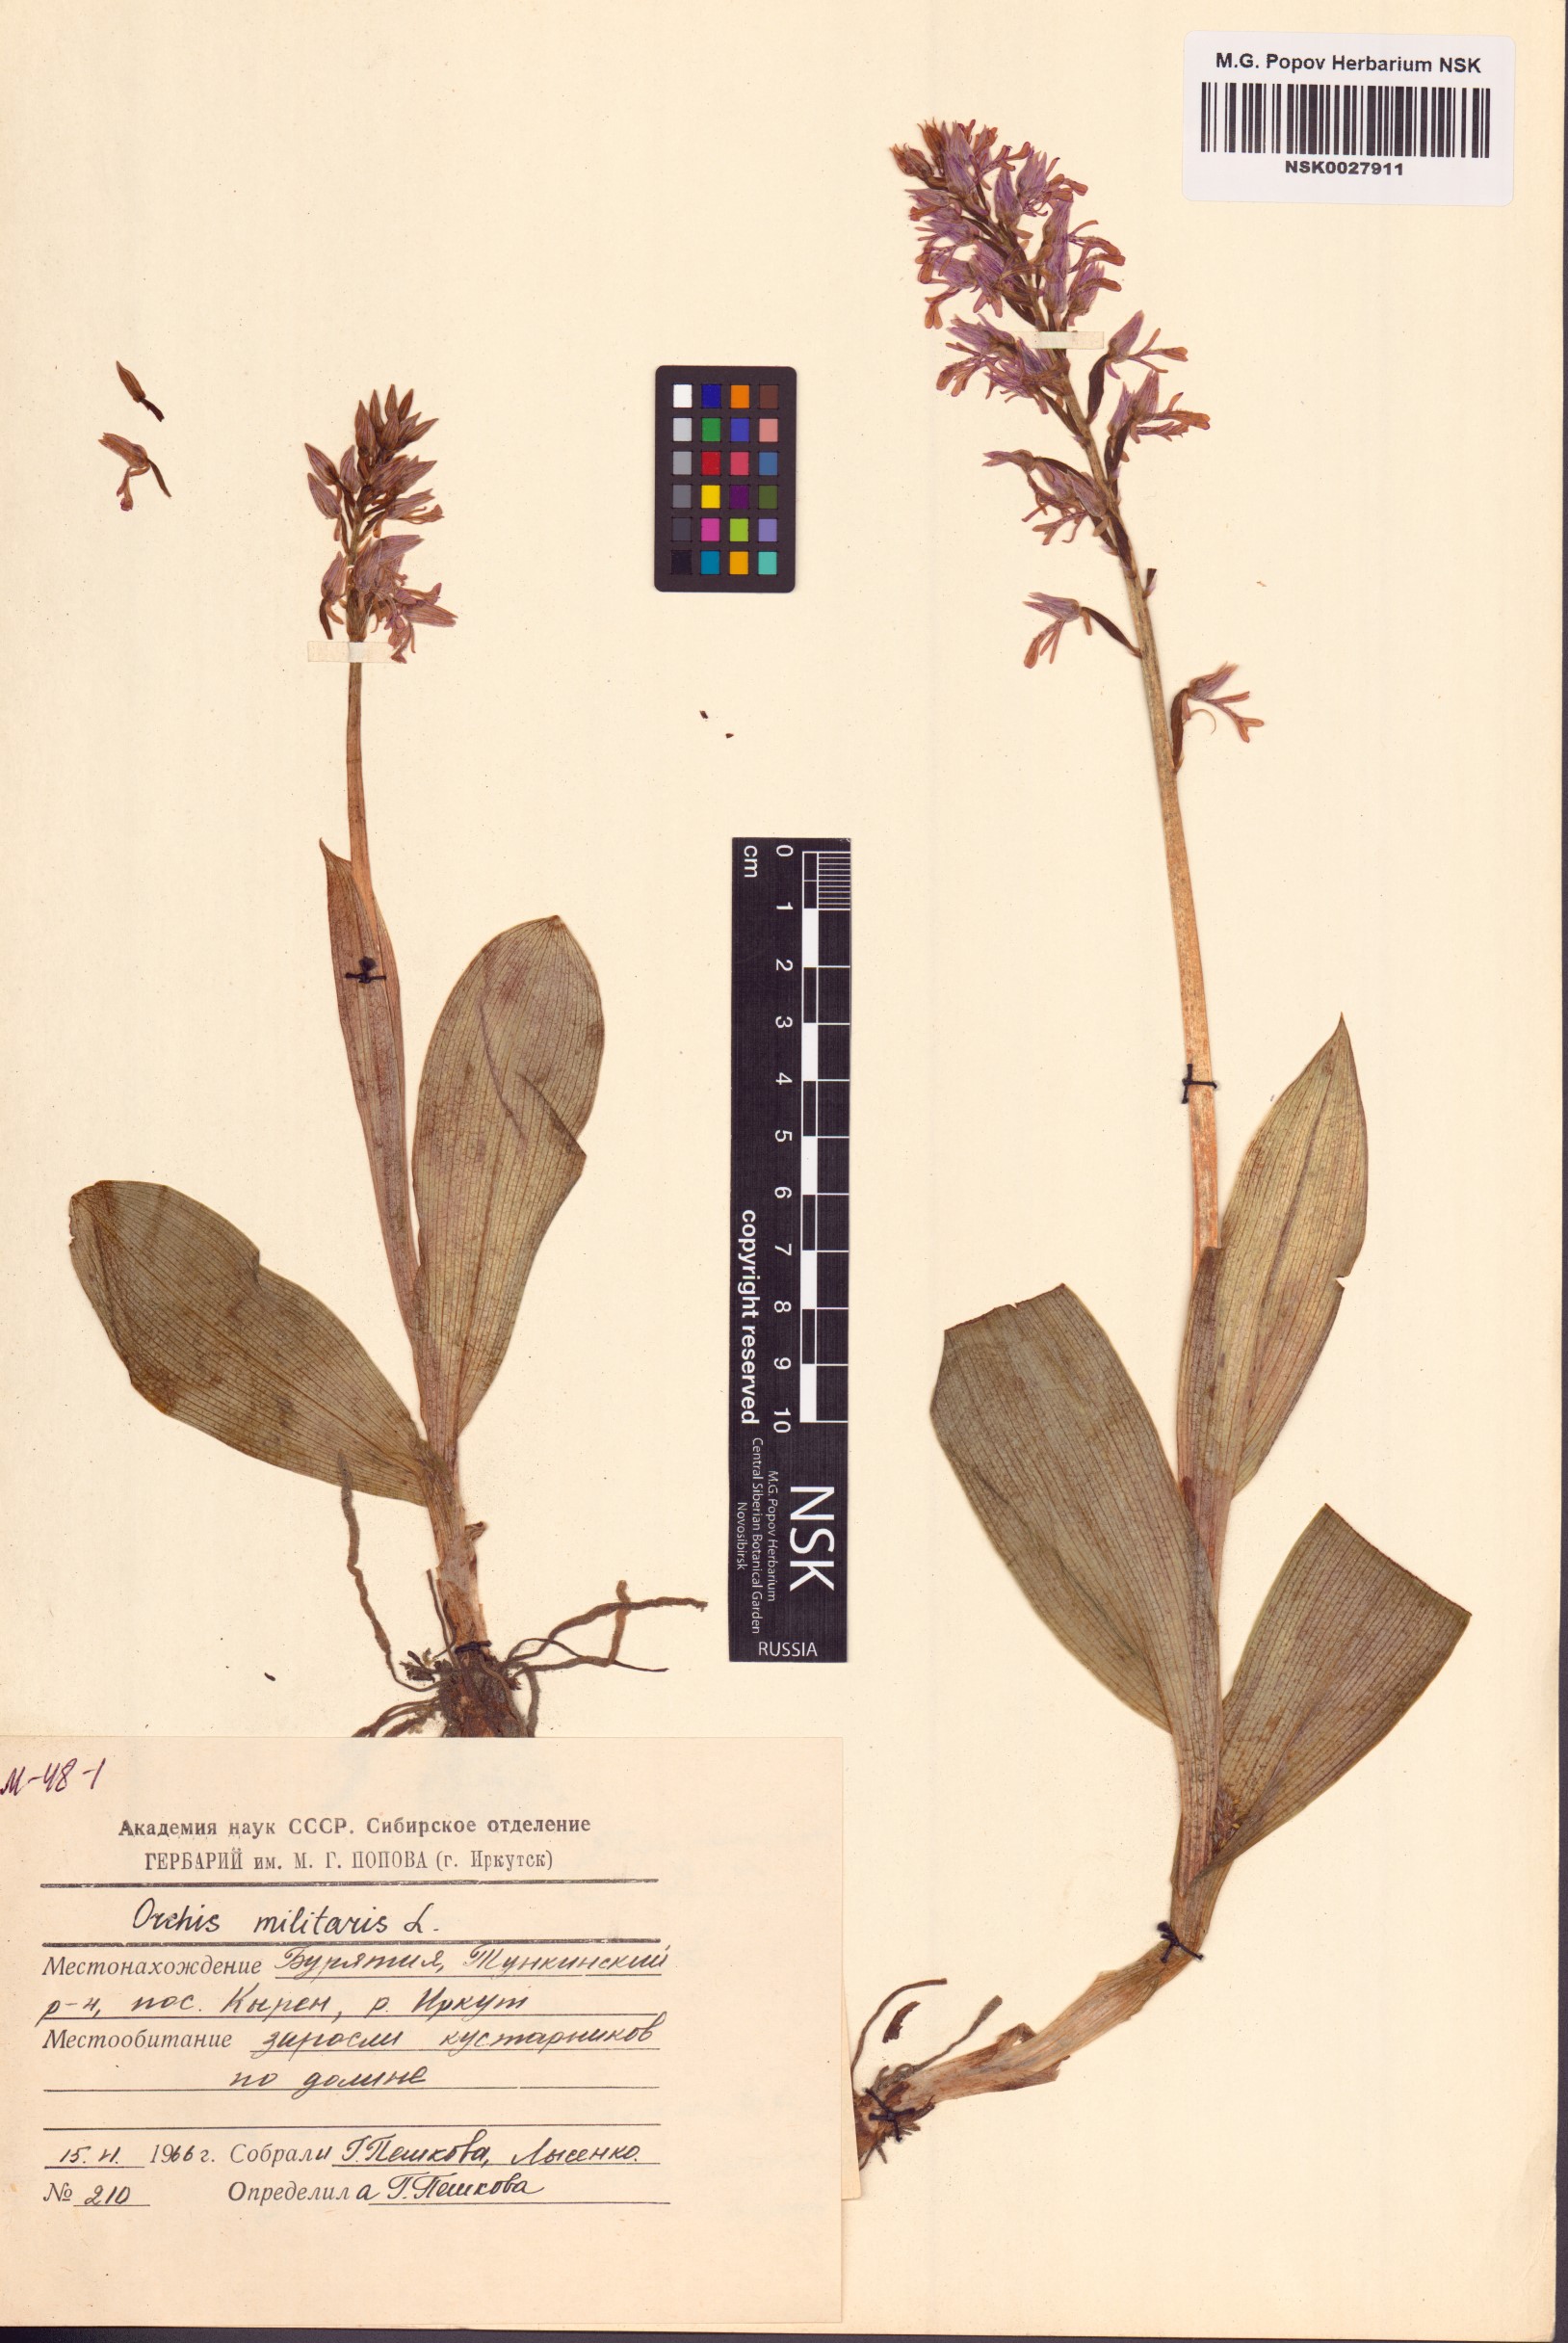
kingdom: Plantae
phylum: Tracheophyta
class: Liliopsida
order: Asparagales
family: Orchidaceae
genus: Orchis
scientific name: Orchis militaris
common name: Military orchid
